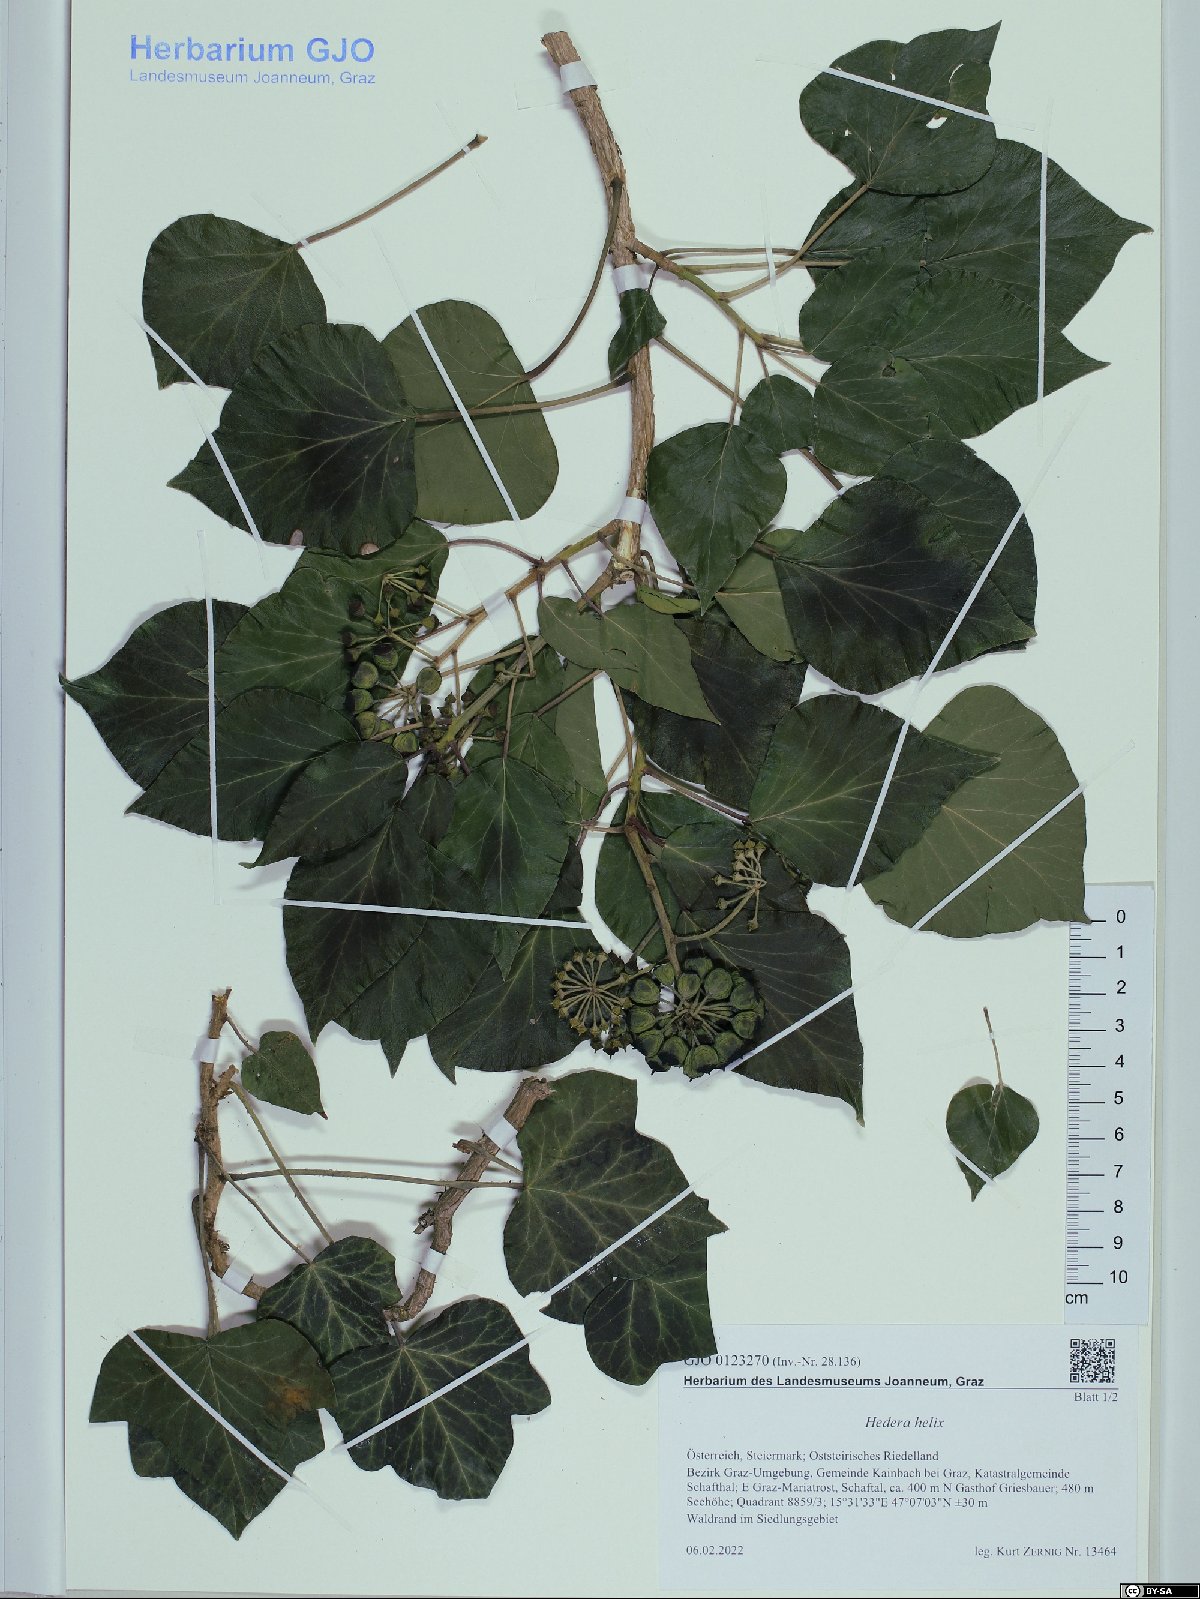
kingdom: Plantae
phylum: Tracheophyta
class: Magnoliopsida
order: Apiales
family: Araliaceae
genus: Hedera
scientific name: Hedera helix
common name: Ivy
